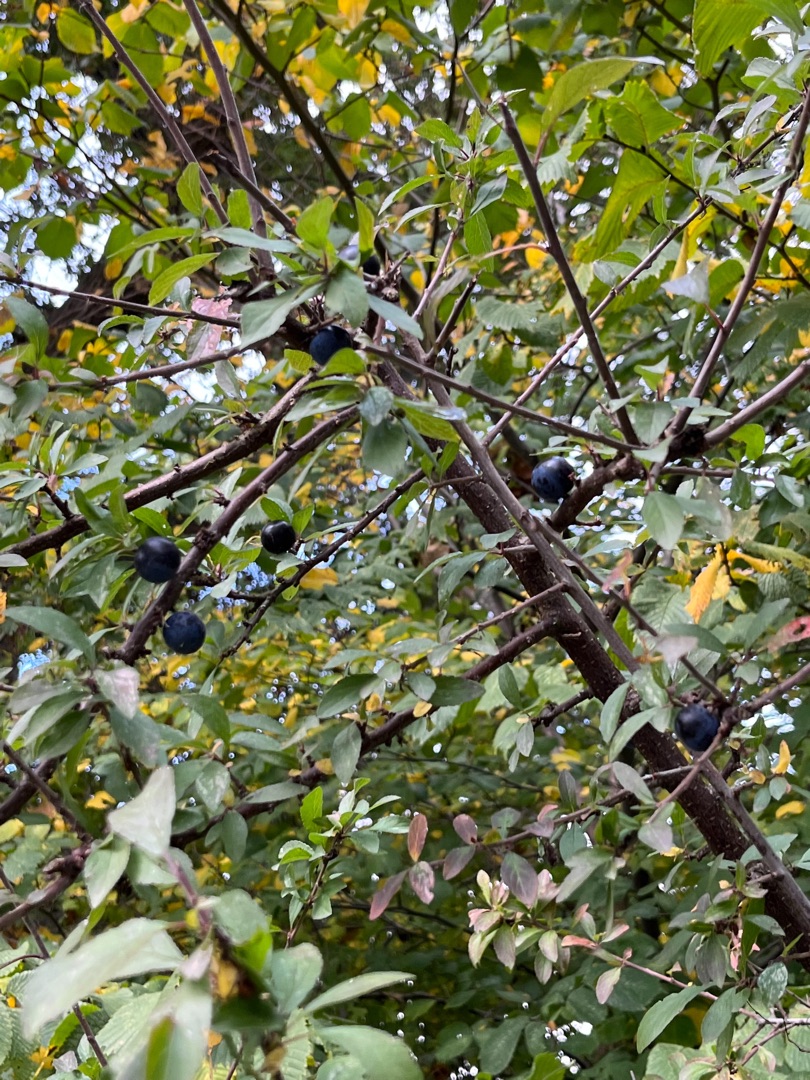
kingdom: Plantae
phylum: Tracheophyta
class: Magnoliopsida
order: Rosales
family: Rosaceae
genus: Prunus
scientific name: Prunus spinosa
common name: Slåen
